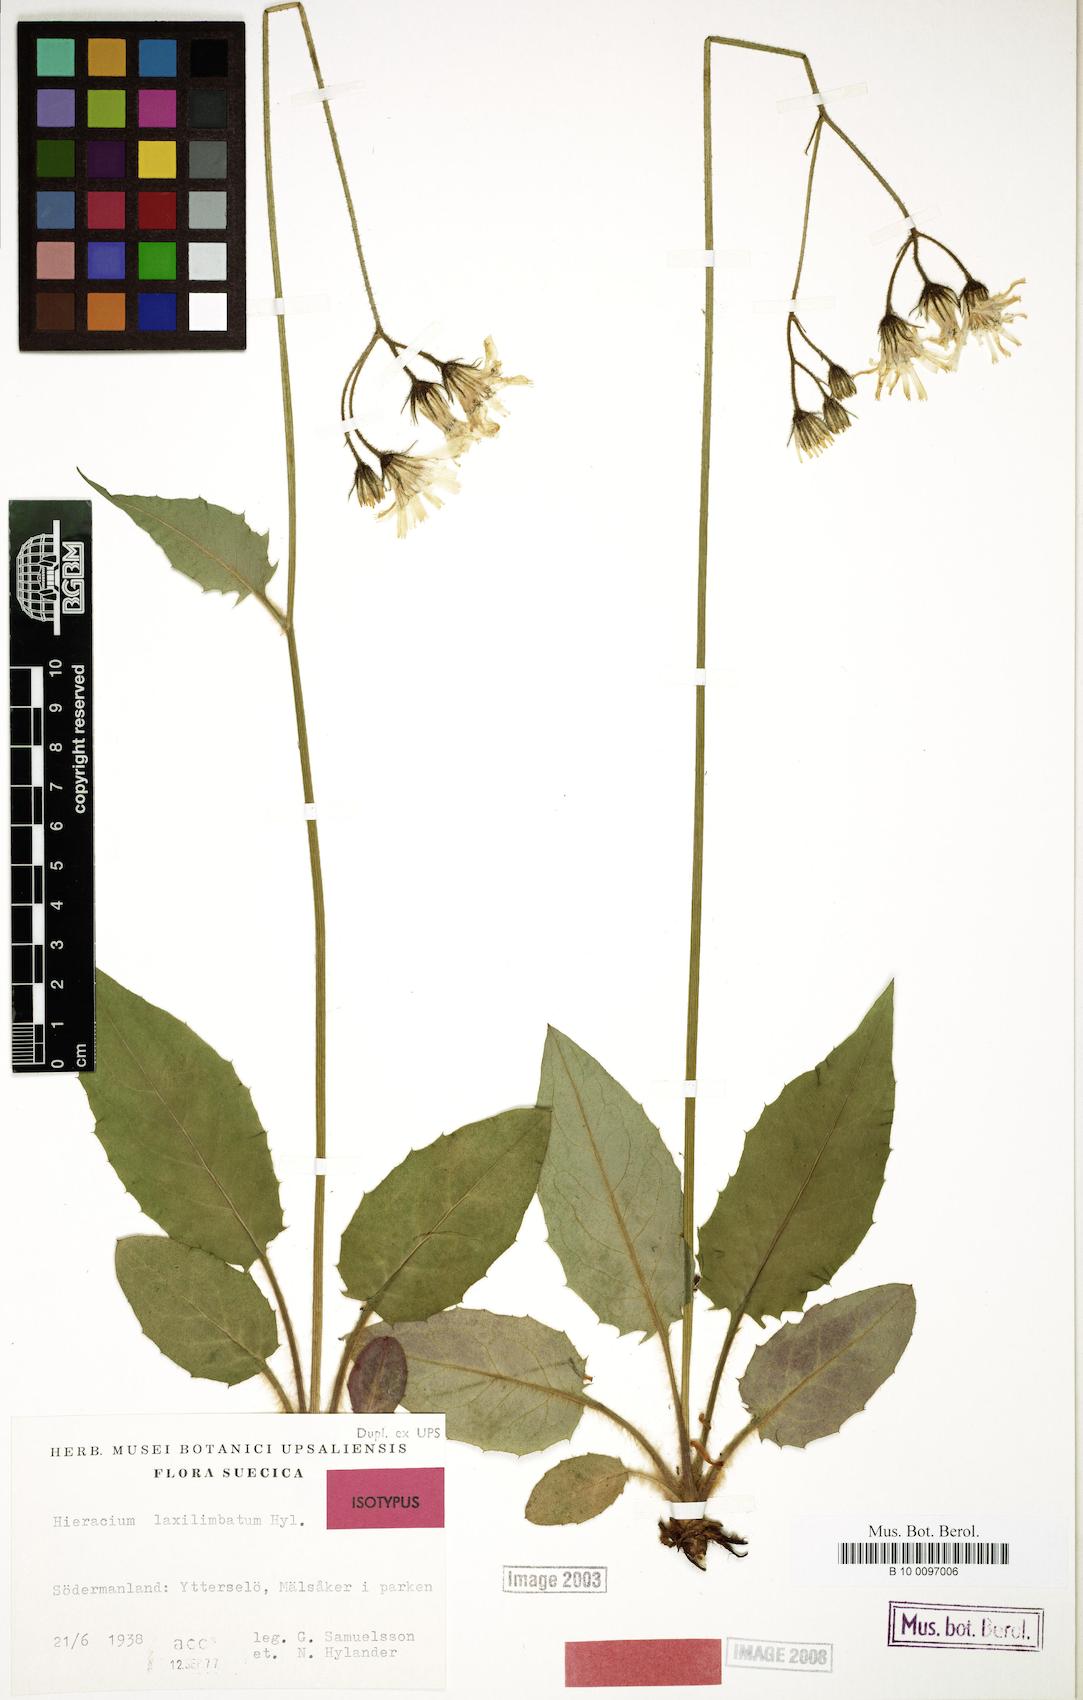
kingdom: Plantae
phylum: Tracheophyta
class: Magnoliopsida
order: Asterales
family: Asteraceae
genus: Hieracium
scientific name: Hieracium laxilimbatum
